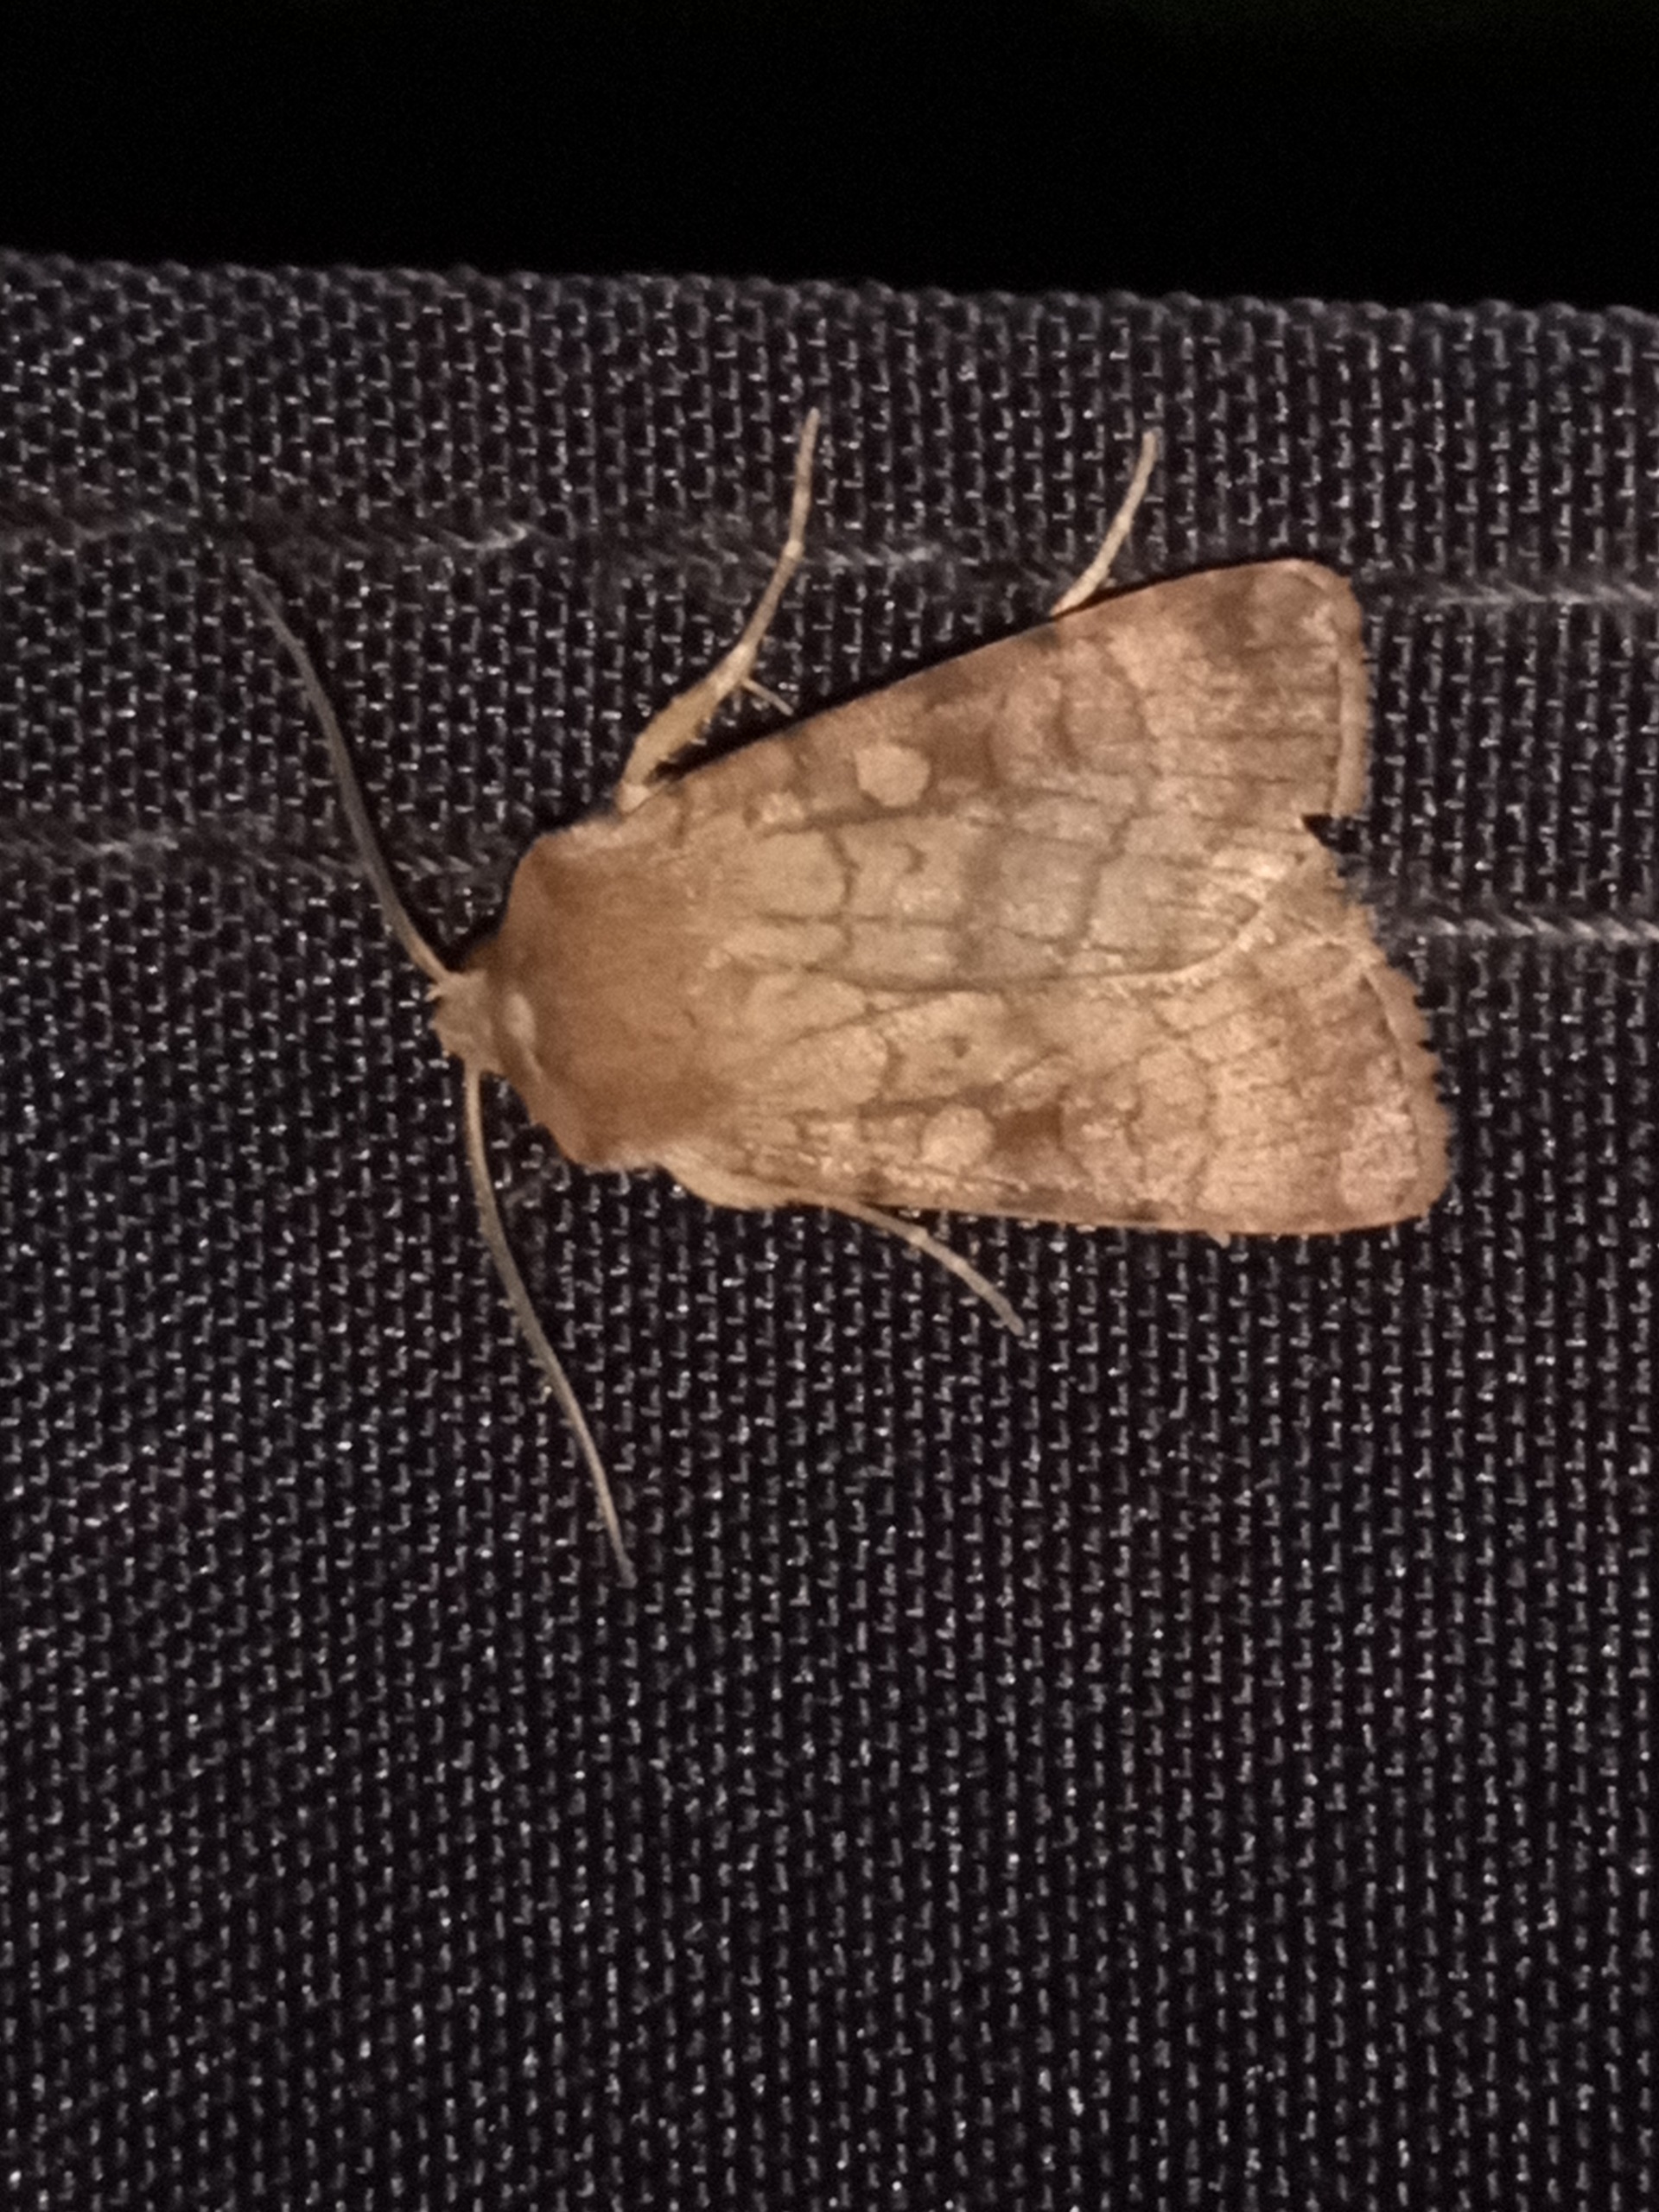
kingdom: Animalia
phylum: Arthropoda
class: Insecta
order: Lepidoptera
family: Noctuidae
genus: Xestia
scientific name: Xestia sexstrigata
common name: Seksliniet glansugle
